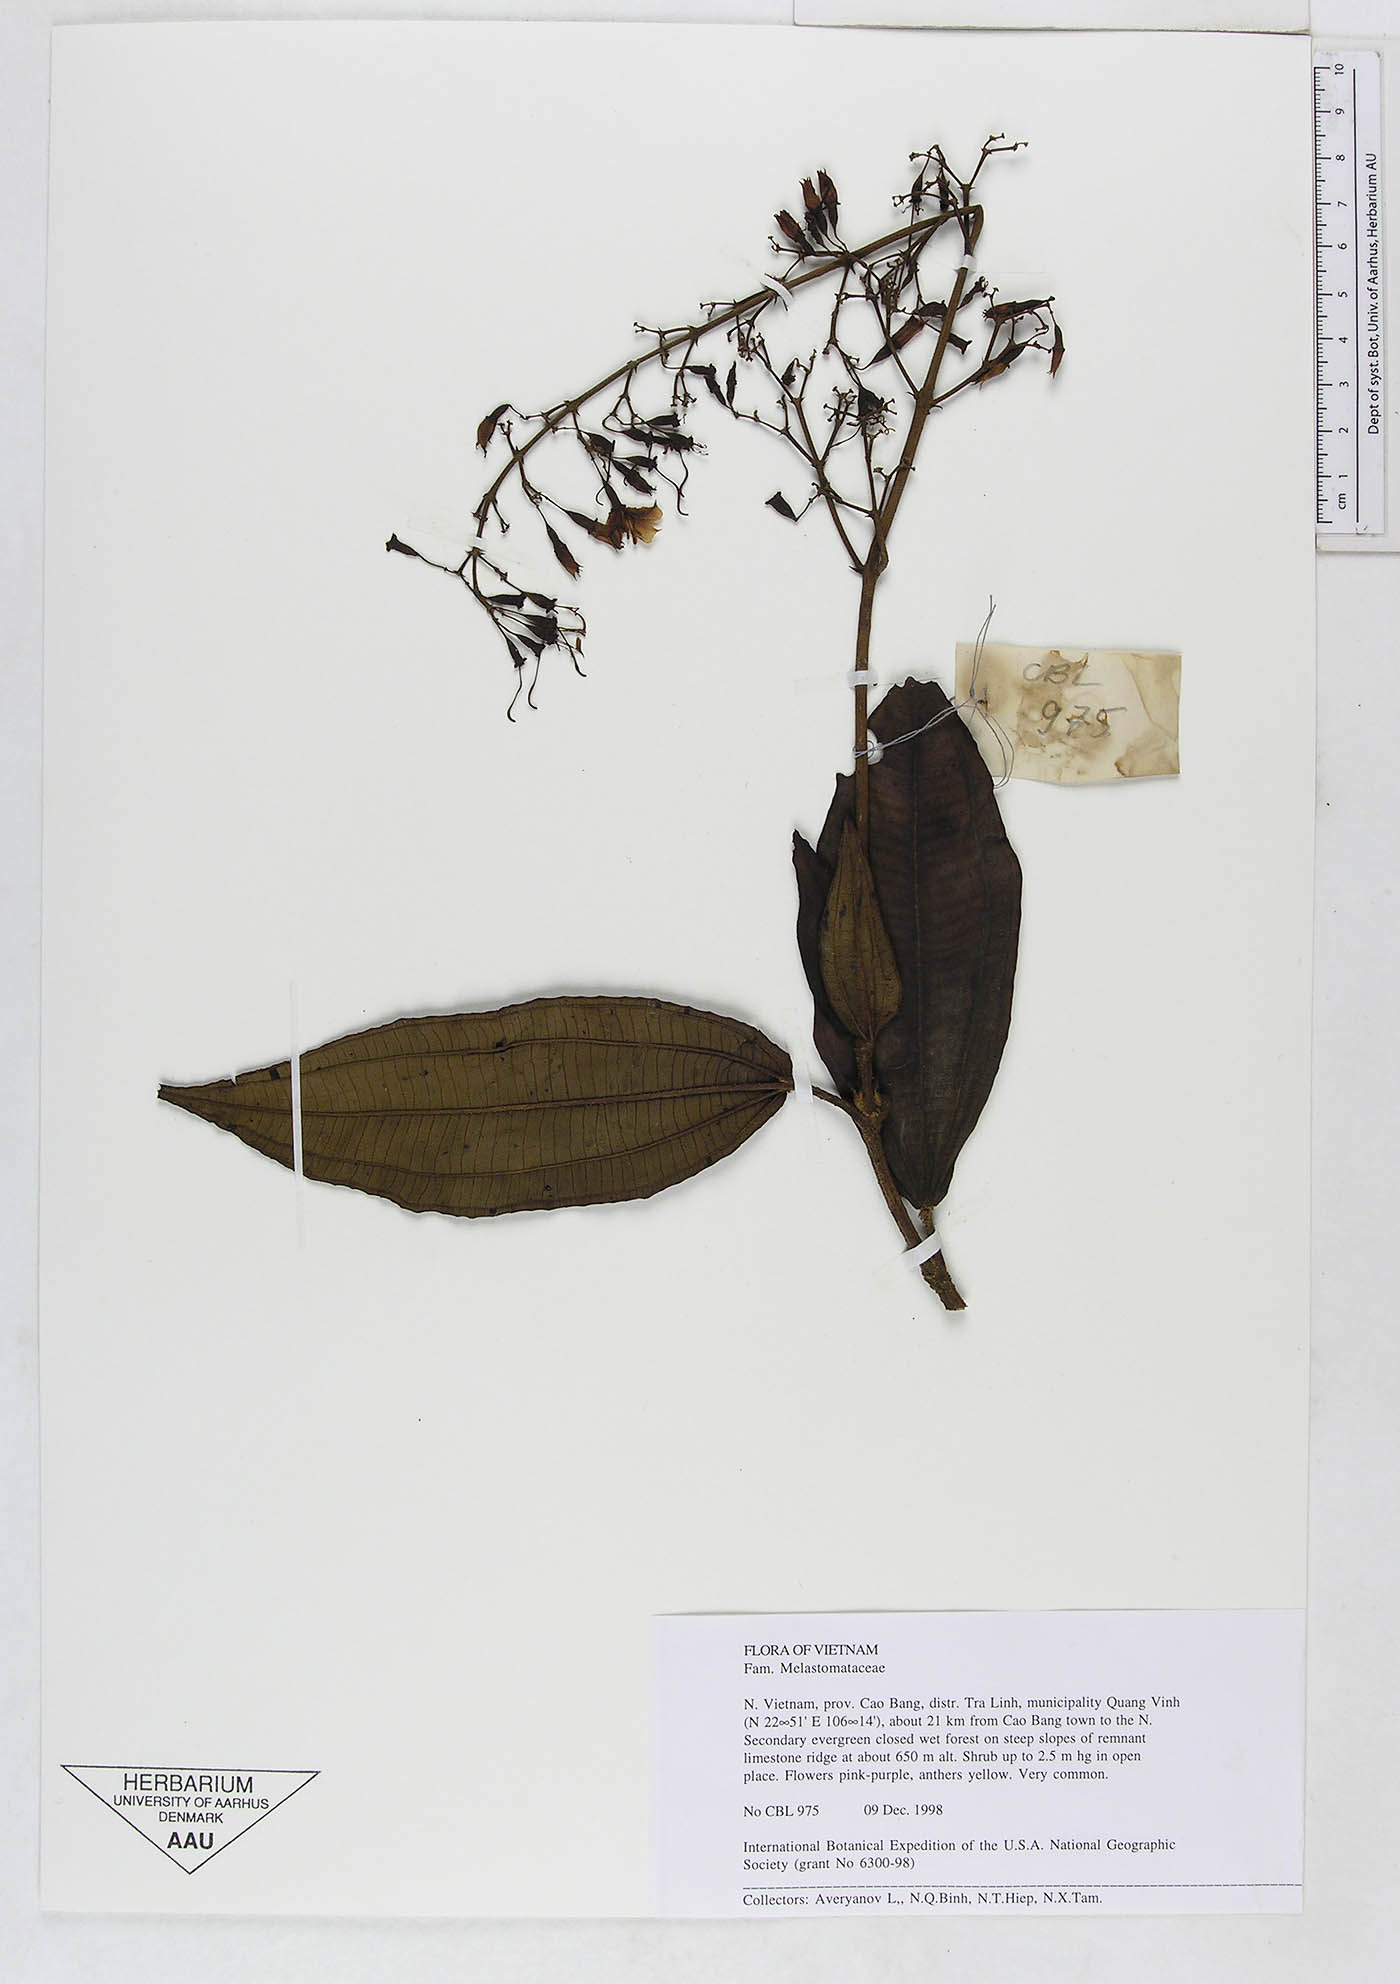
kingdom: Plantae
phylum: Tracheophyta
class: Magnoliopsida
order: Myrtales
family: Melastomataceae
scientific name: Melastomataceae
